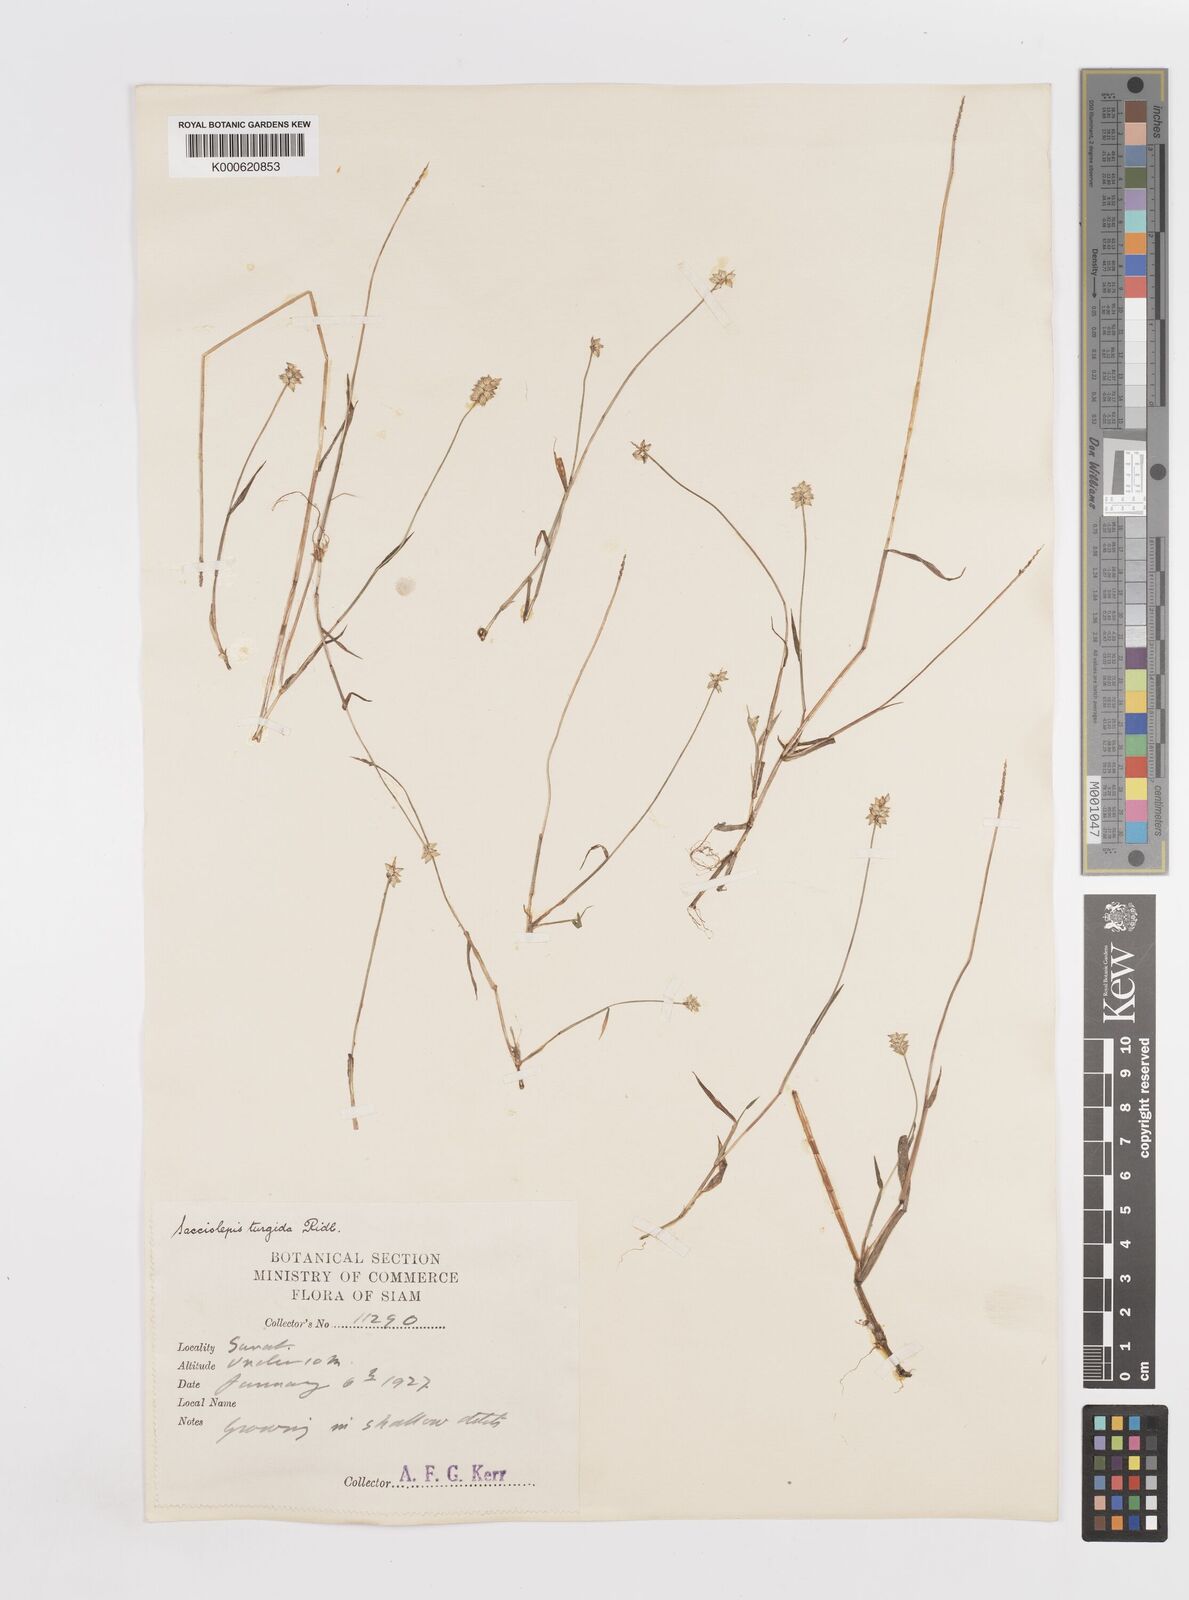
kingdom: Plantae
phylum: Tracheophyta
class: Liliopsida
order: Poales
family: Poaceae
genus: Sacciolepis
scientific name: Sacciolepis indica
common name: Glenwoodgrass
